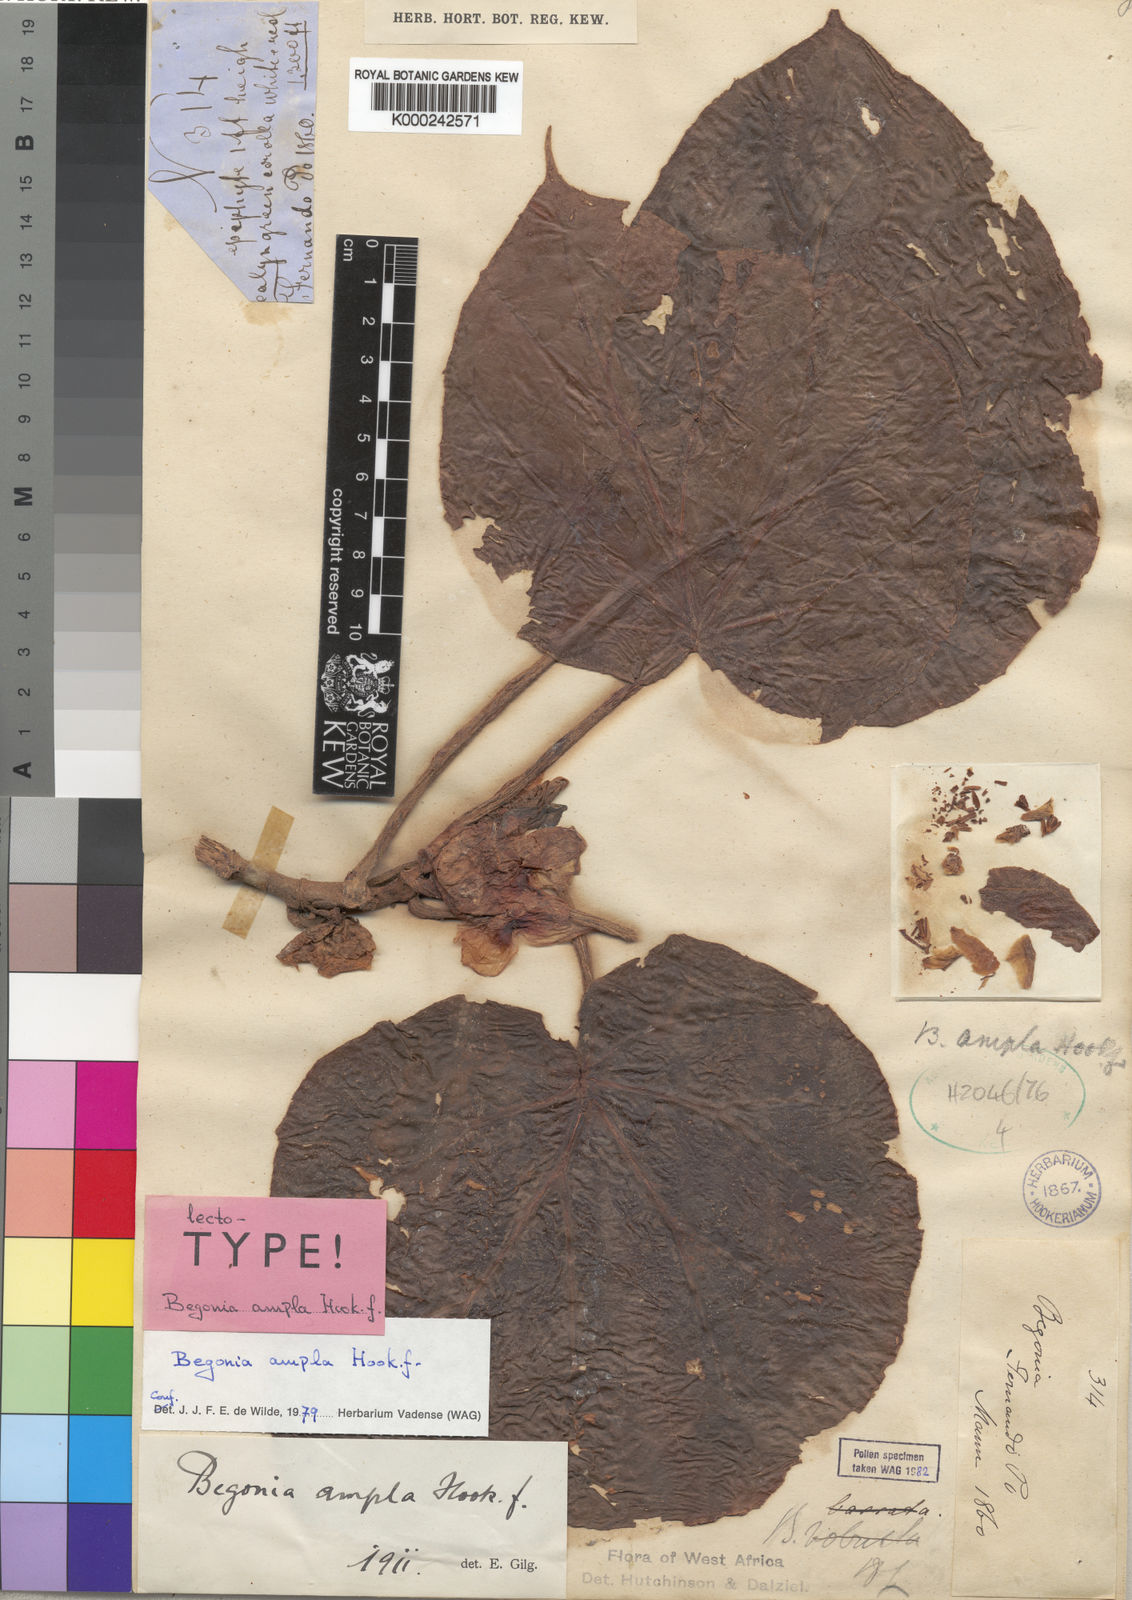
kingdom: Plantae
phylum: Tracheophyta
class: Magnoliopsida
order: Cucurbitales
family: Begoniaceae
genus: Begonia
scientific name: Begonia ampla
